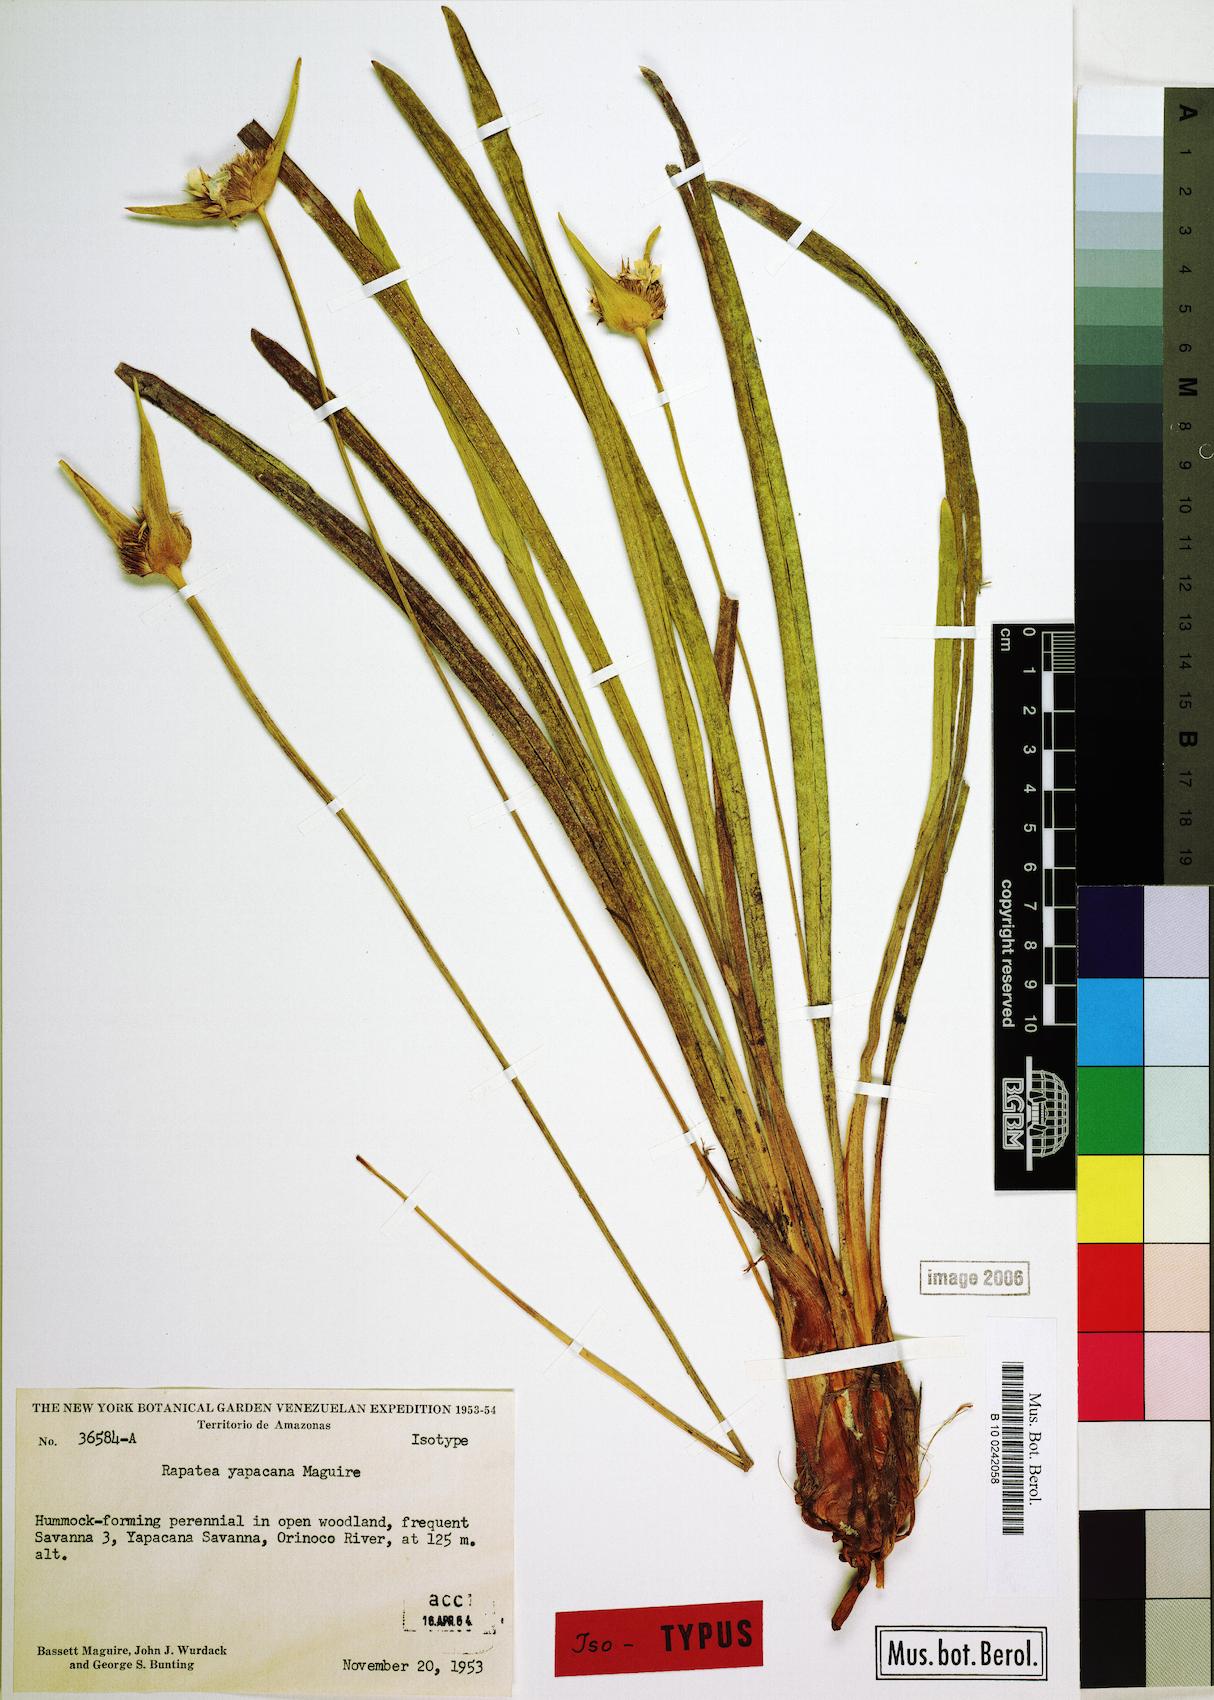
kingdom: Plantae
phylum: Tracheophyta
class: Liliopsida
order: Poales
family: Rapateaceae
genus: Rapatea
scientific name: Rapatea yapacana
